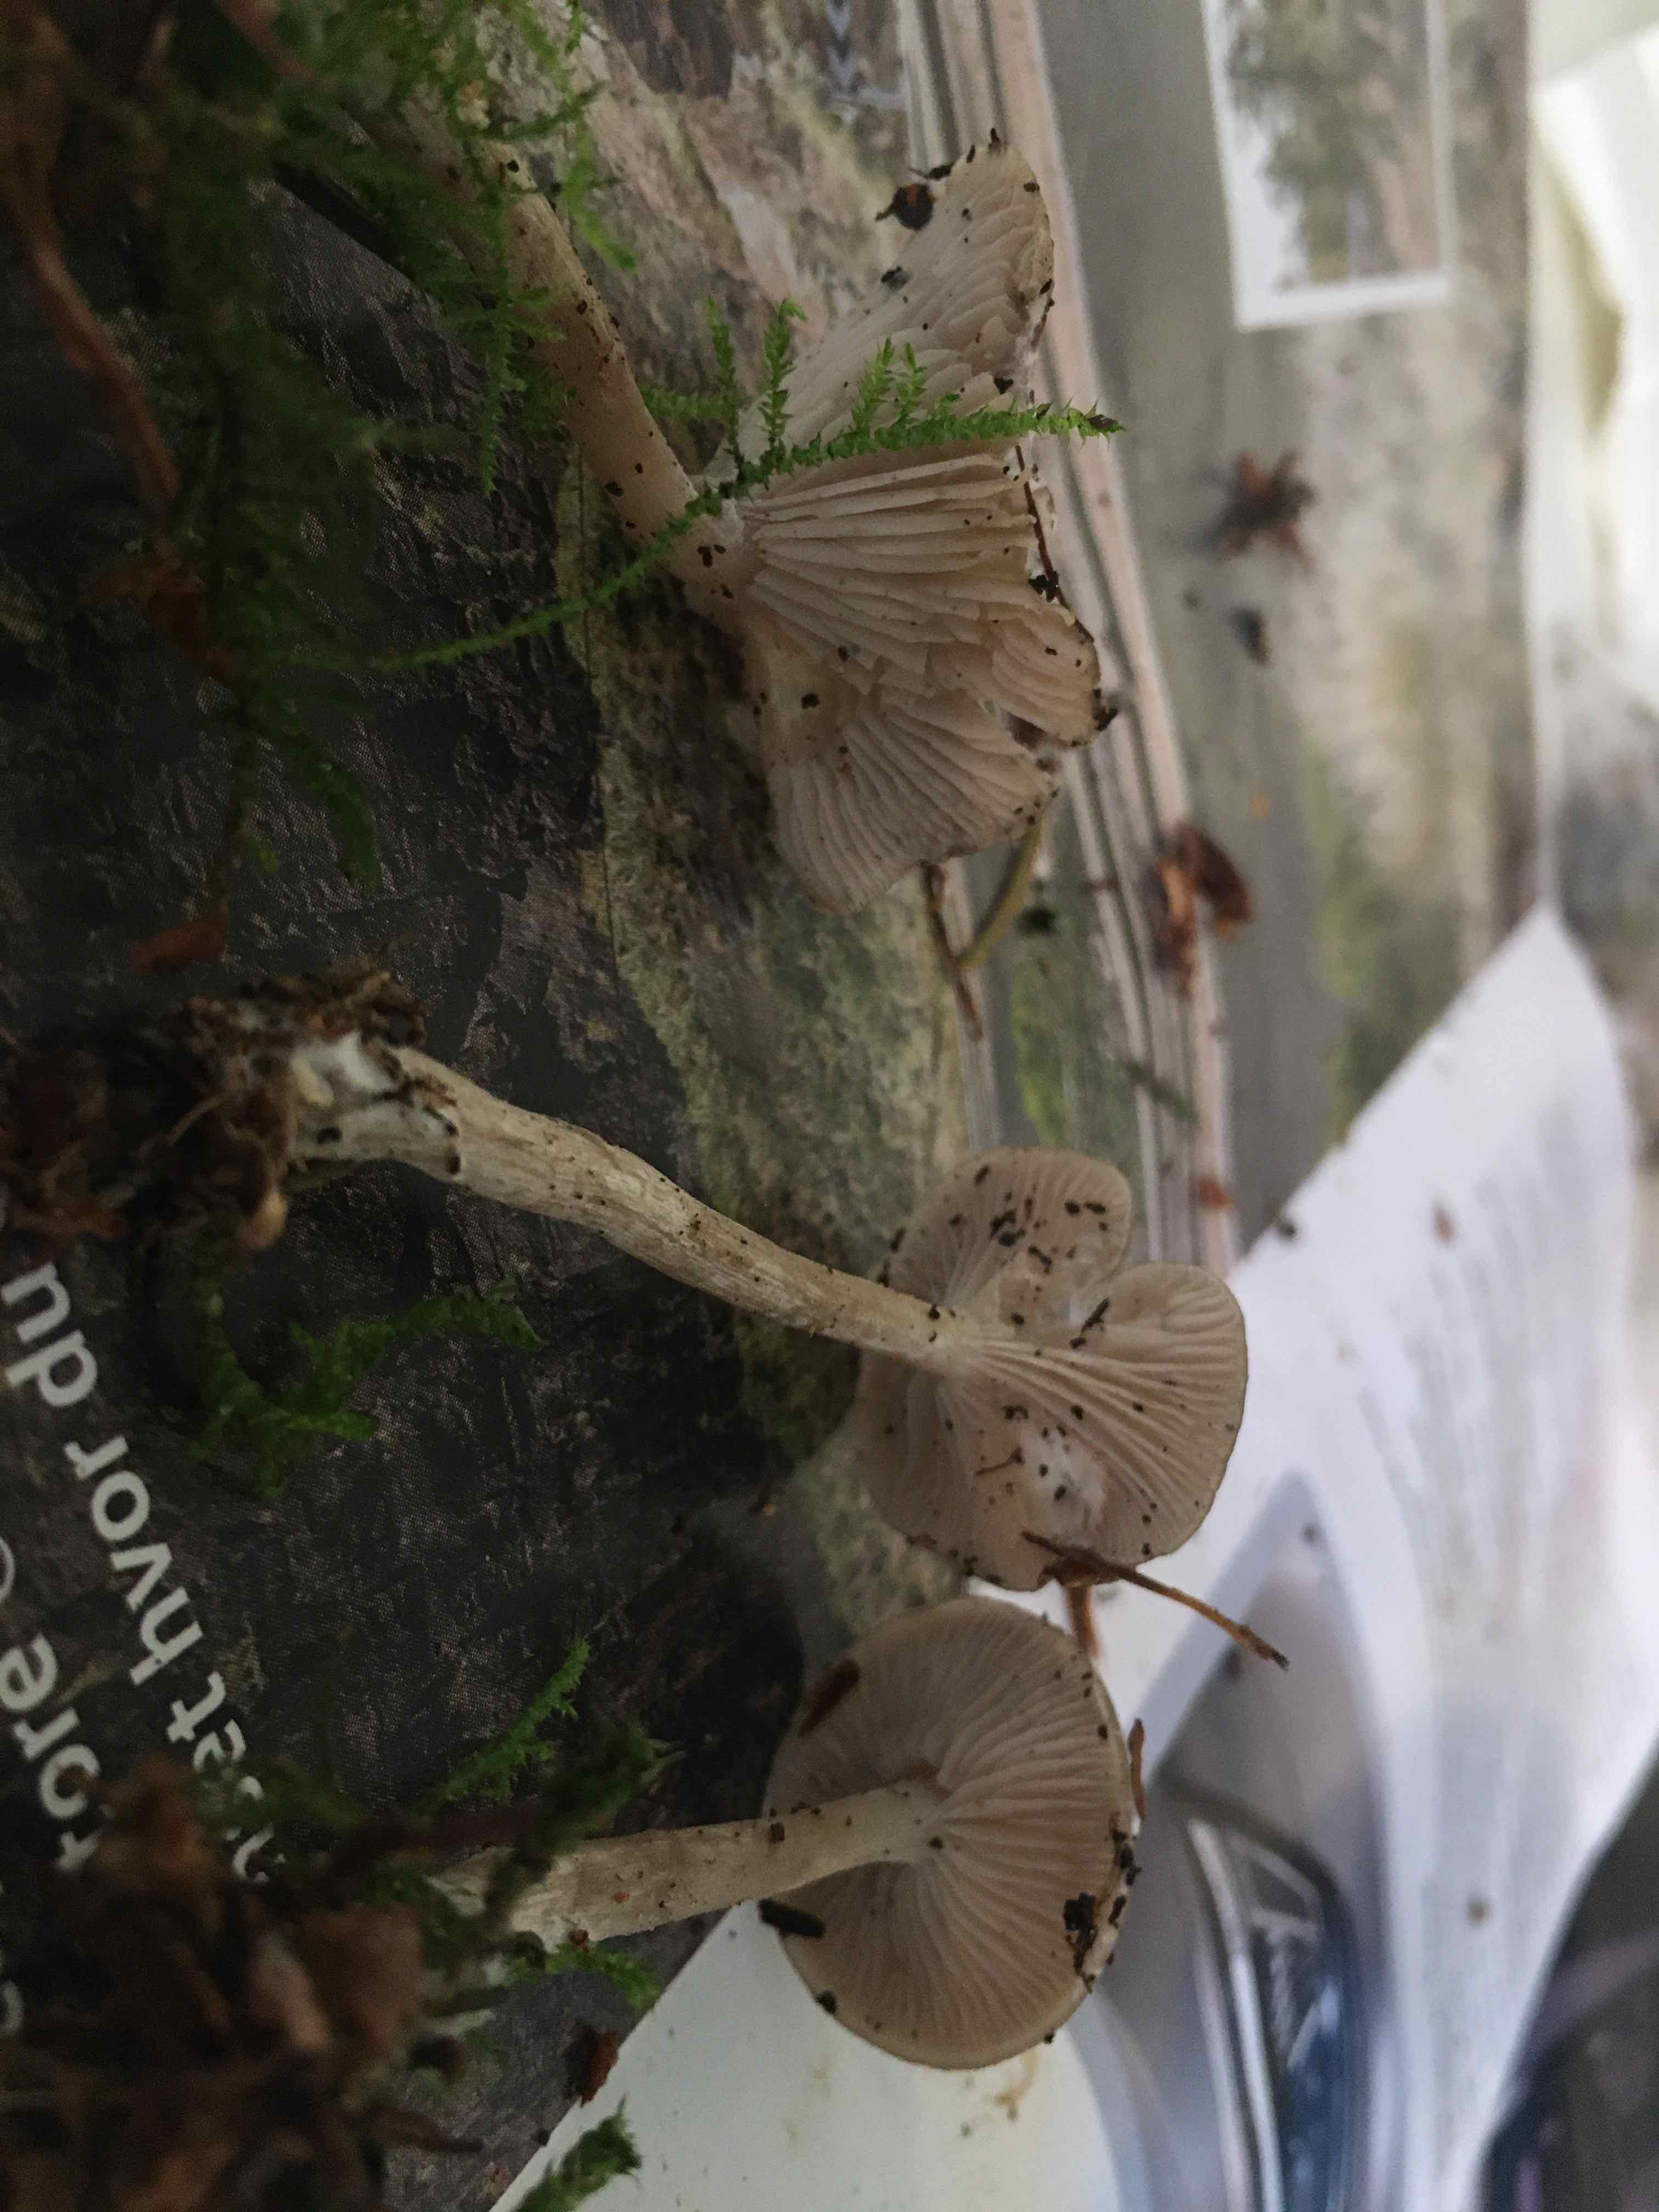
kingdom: Fungi
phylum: Basidiomycota
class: Agaricomycetes
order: Agaricales
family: Tricholomataceae
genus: Clitocybe
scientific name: Clitocybe metachroa
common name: grå tragthat
